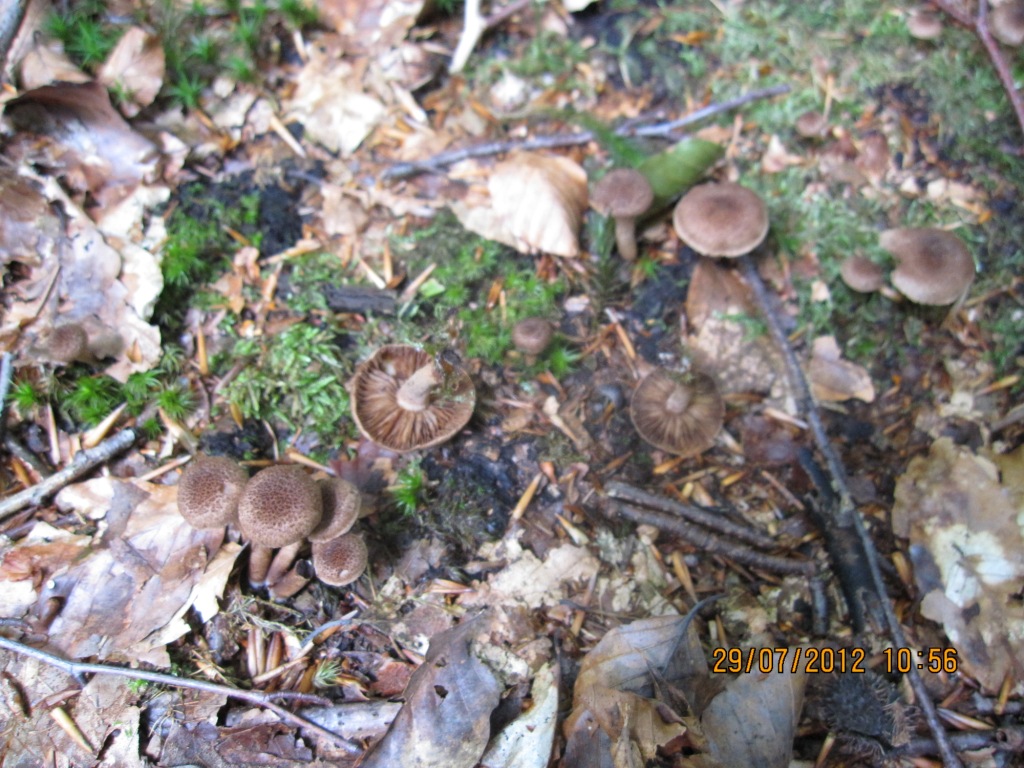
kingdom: Fungi
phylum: Basidiomycota
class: Agaricomycetes
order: Agaricales
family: Inocybaceae
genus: Inocybe
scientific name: Inocybe lanuginosa
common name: uldskællet trævlhat
